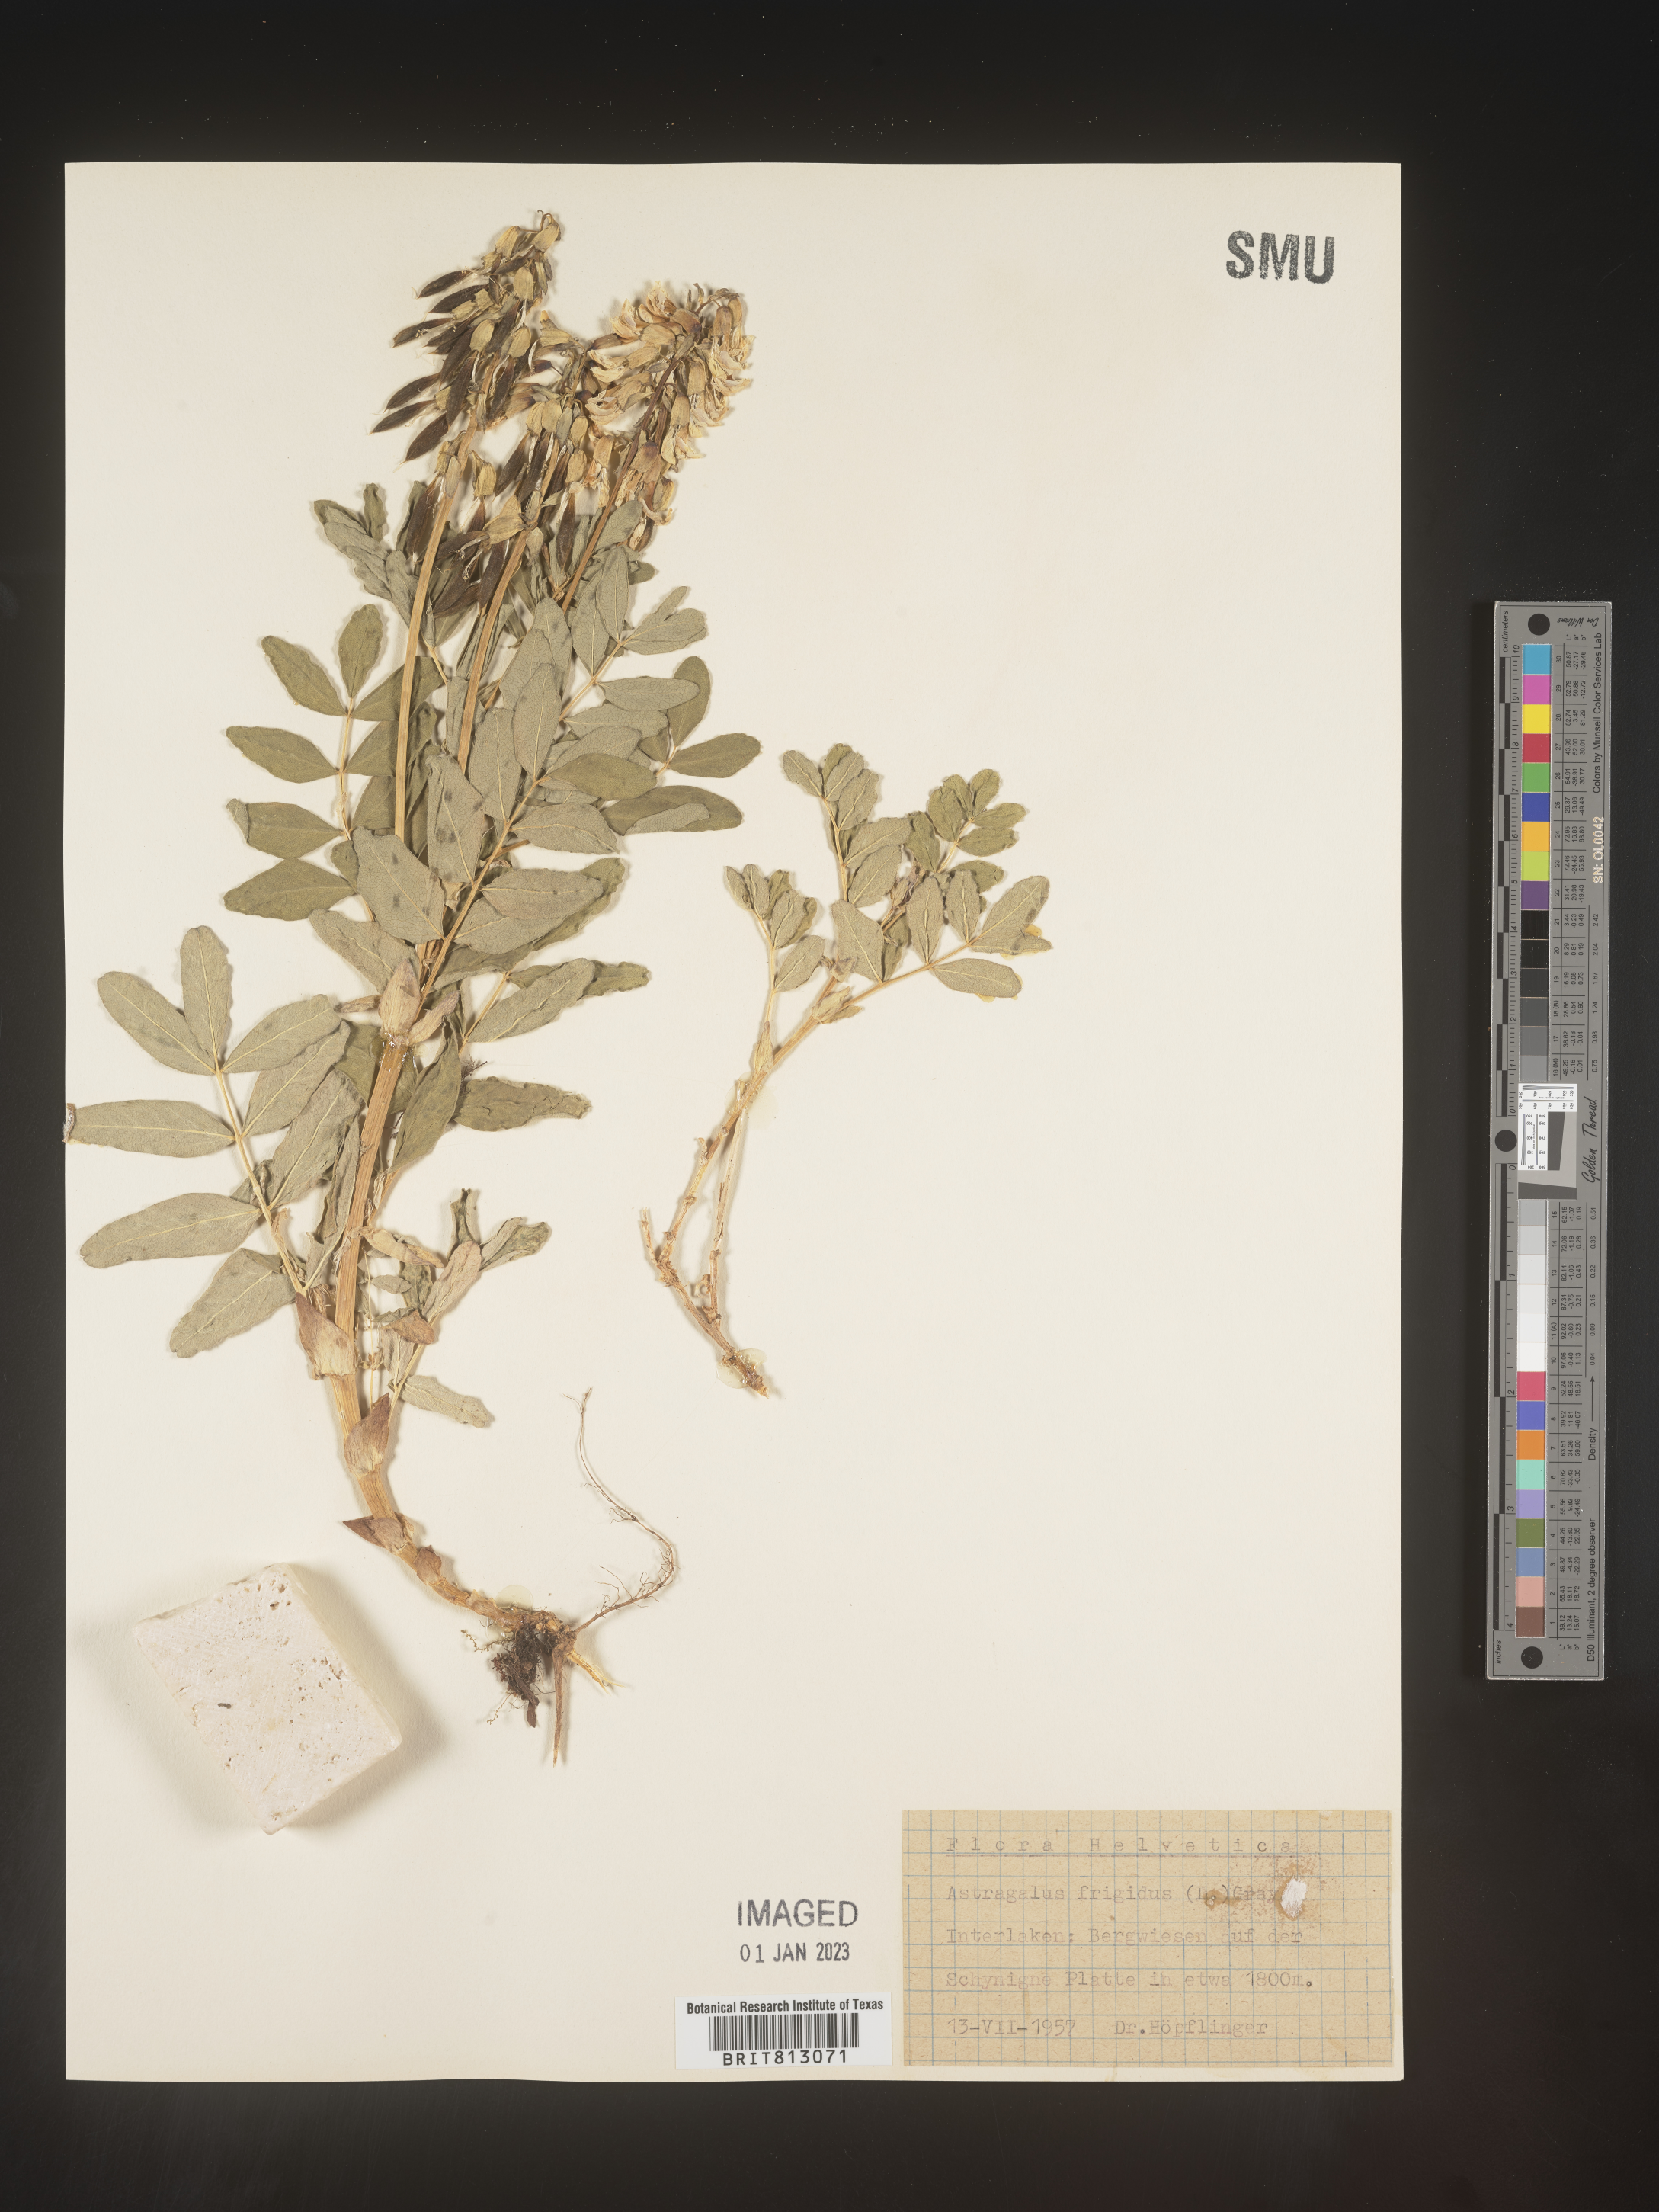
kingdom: Plantae
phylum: Tracheophyta
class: Magnoliopsida
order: Fabales
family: Fabaceae
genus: Astragalus
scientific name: Astragalus
